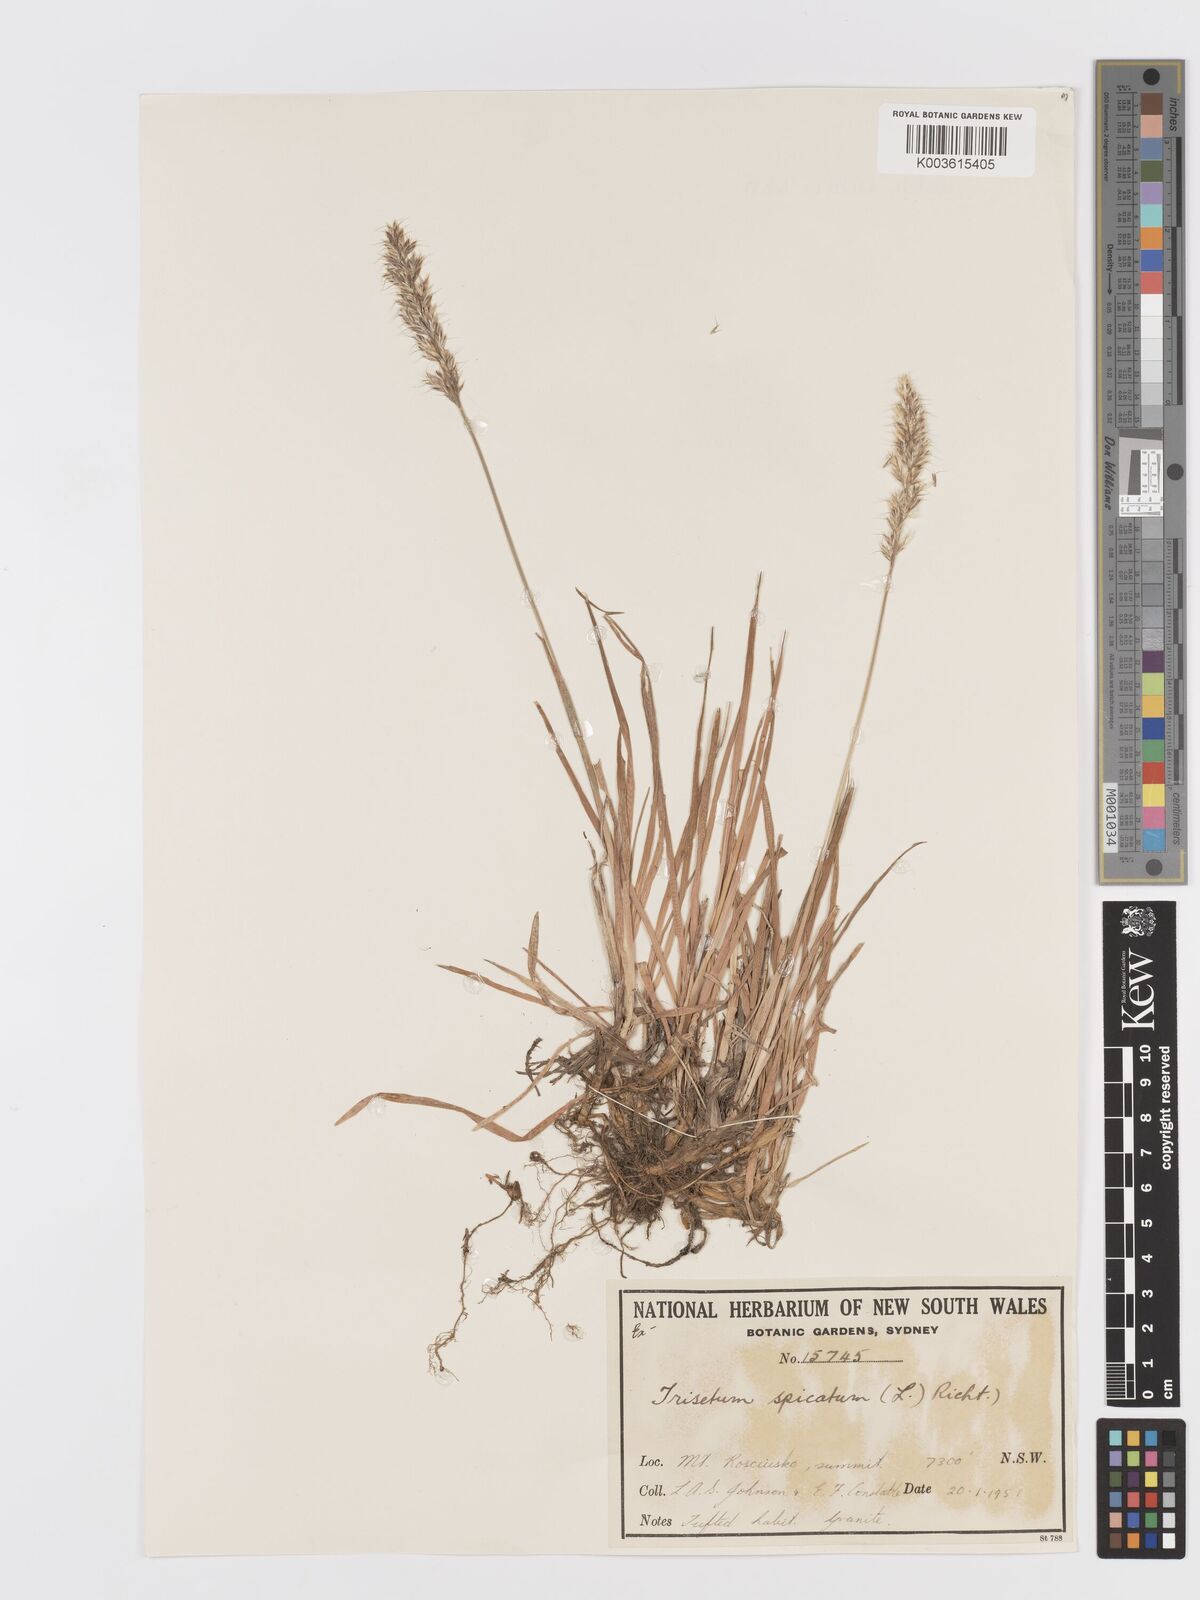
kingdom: Plantae
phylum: Tracheophyta
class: Liliopsida
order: Poales
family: Poaceae
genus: Koeleria
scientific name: Koeleria spicata
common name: Mountain trisetum
